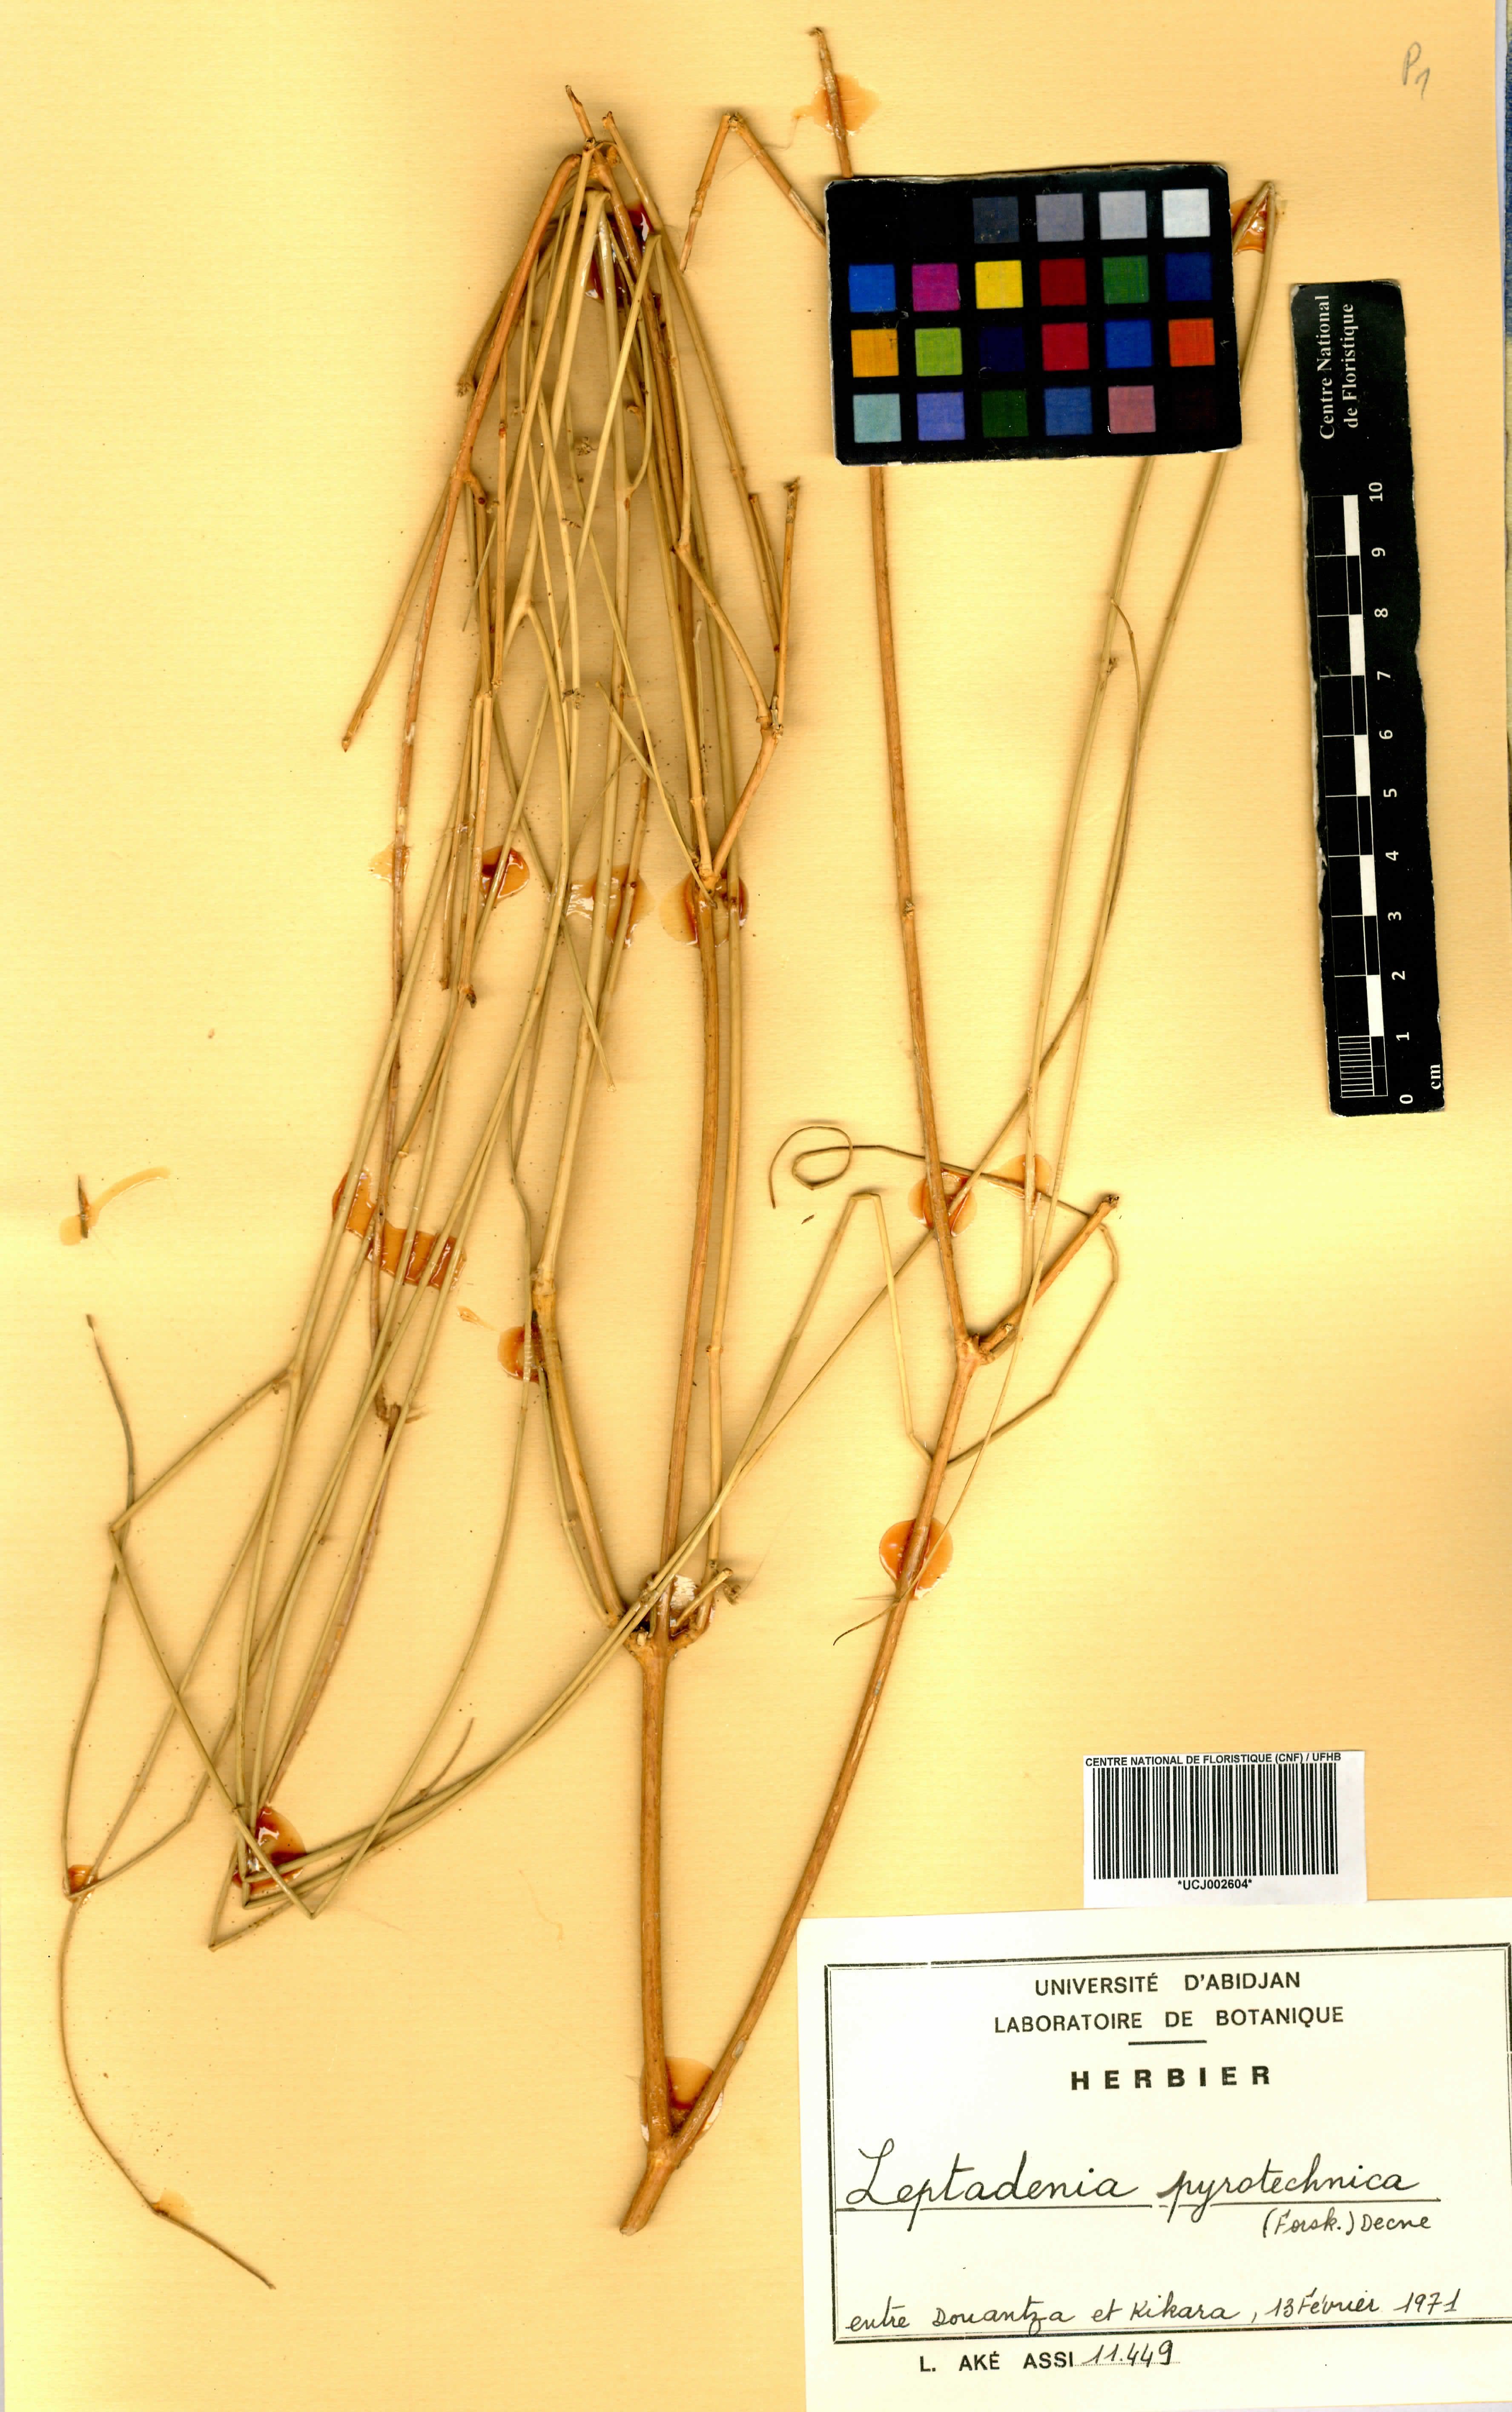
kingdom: Plantae
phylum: Tracheophyta
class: Magnoliopsida
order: Gentianales
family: Apocynaceae
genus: Leptadenia
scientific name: Leptadenia pyrotechnica
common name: Broom brush
